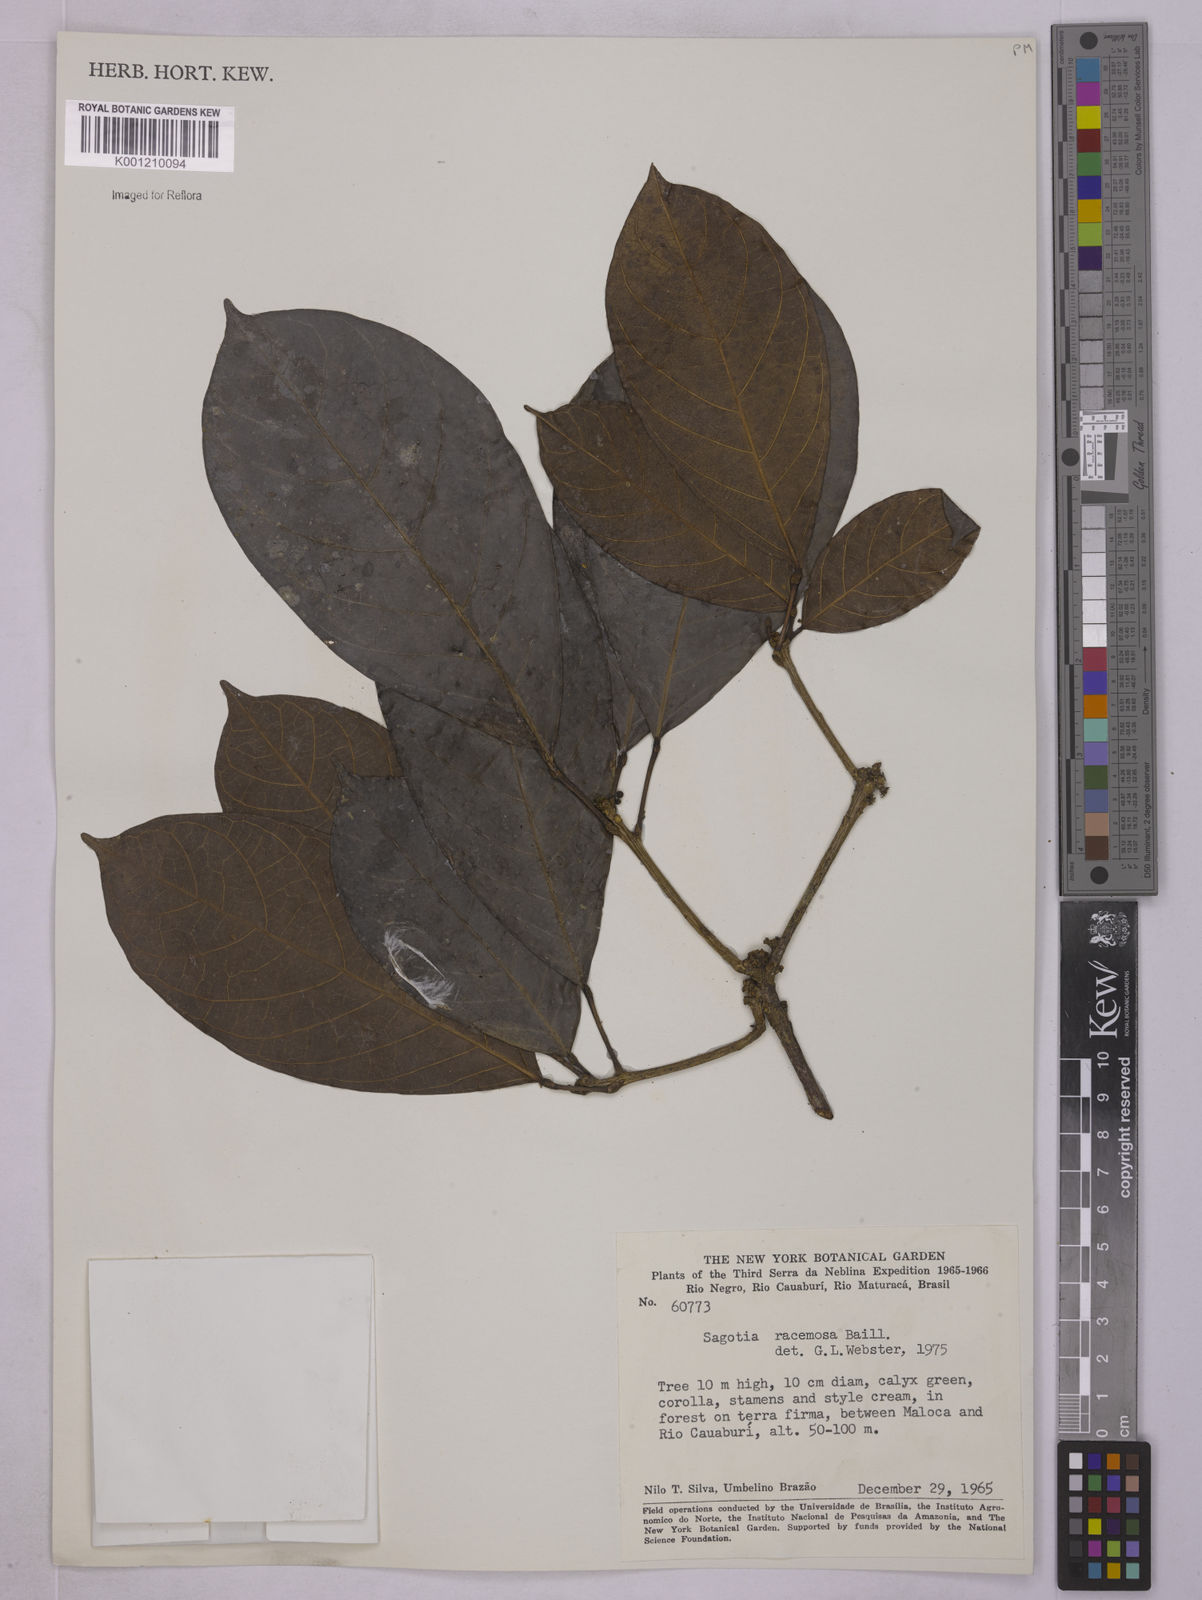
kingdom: Plantae
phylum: Tracheophyta
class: Magnoliopsida
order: Malpighiales
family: Euphorbiaceae
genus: Sagotia
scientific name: Sagotia racemosa
